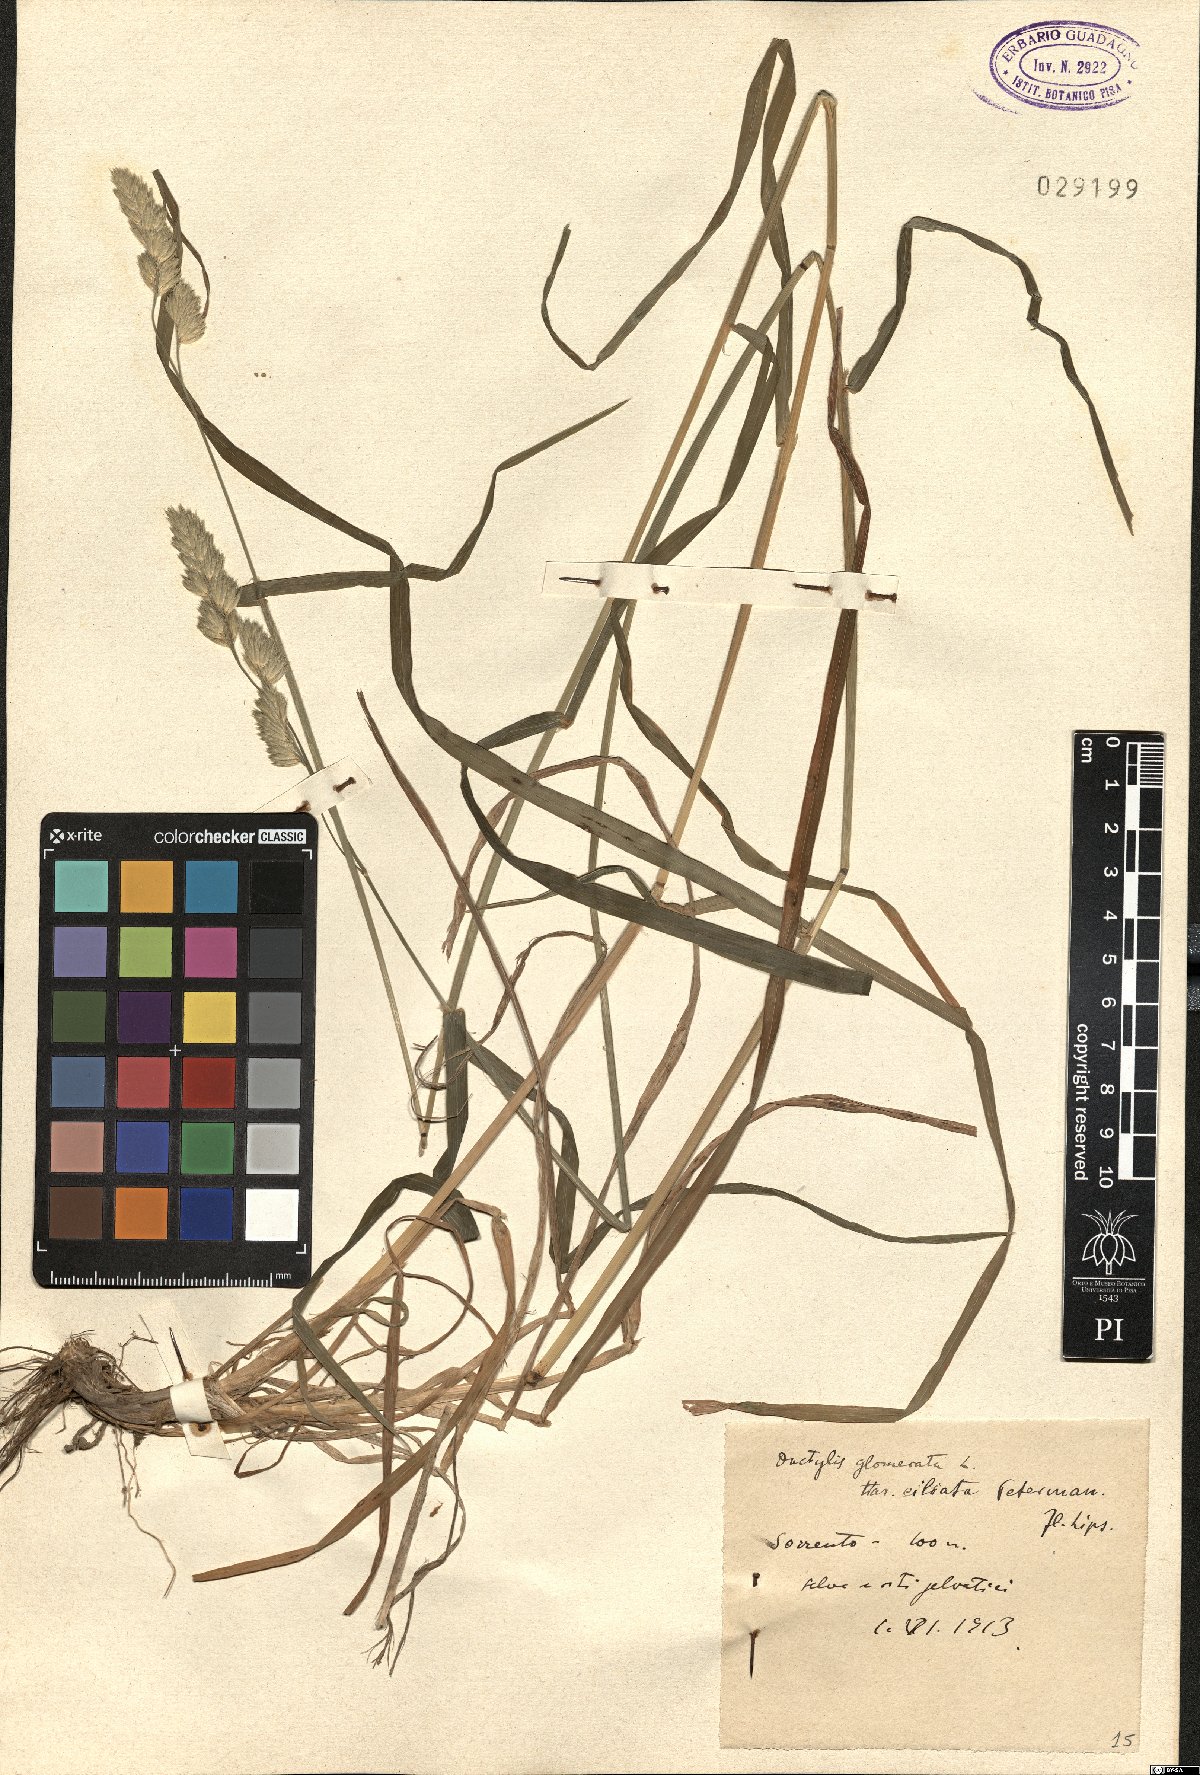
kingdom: Plantae
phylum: Tracheophyta
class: Liliopsida
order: Poales
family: Poaceae
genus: Dactylis
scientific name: Dactylis glomerata
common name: Orchardgrass
